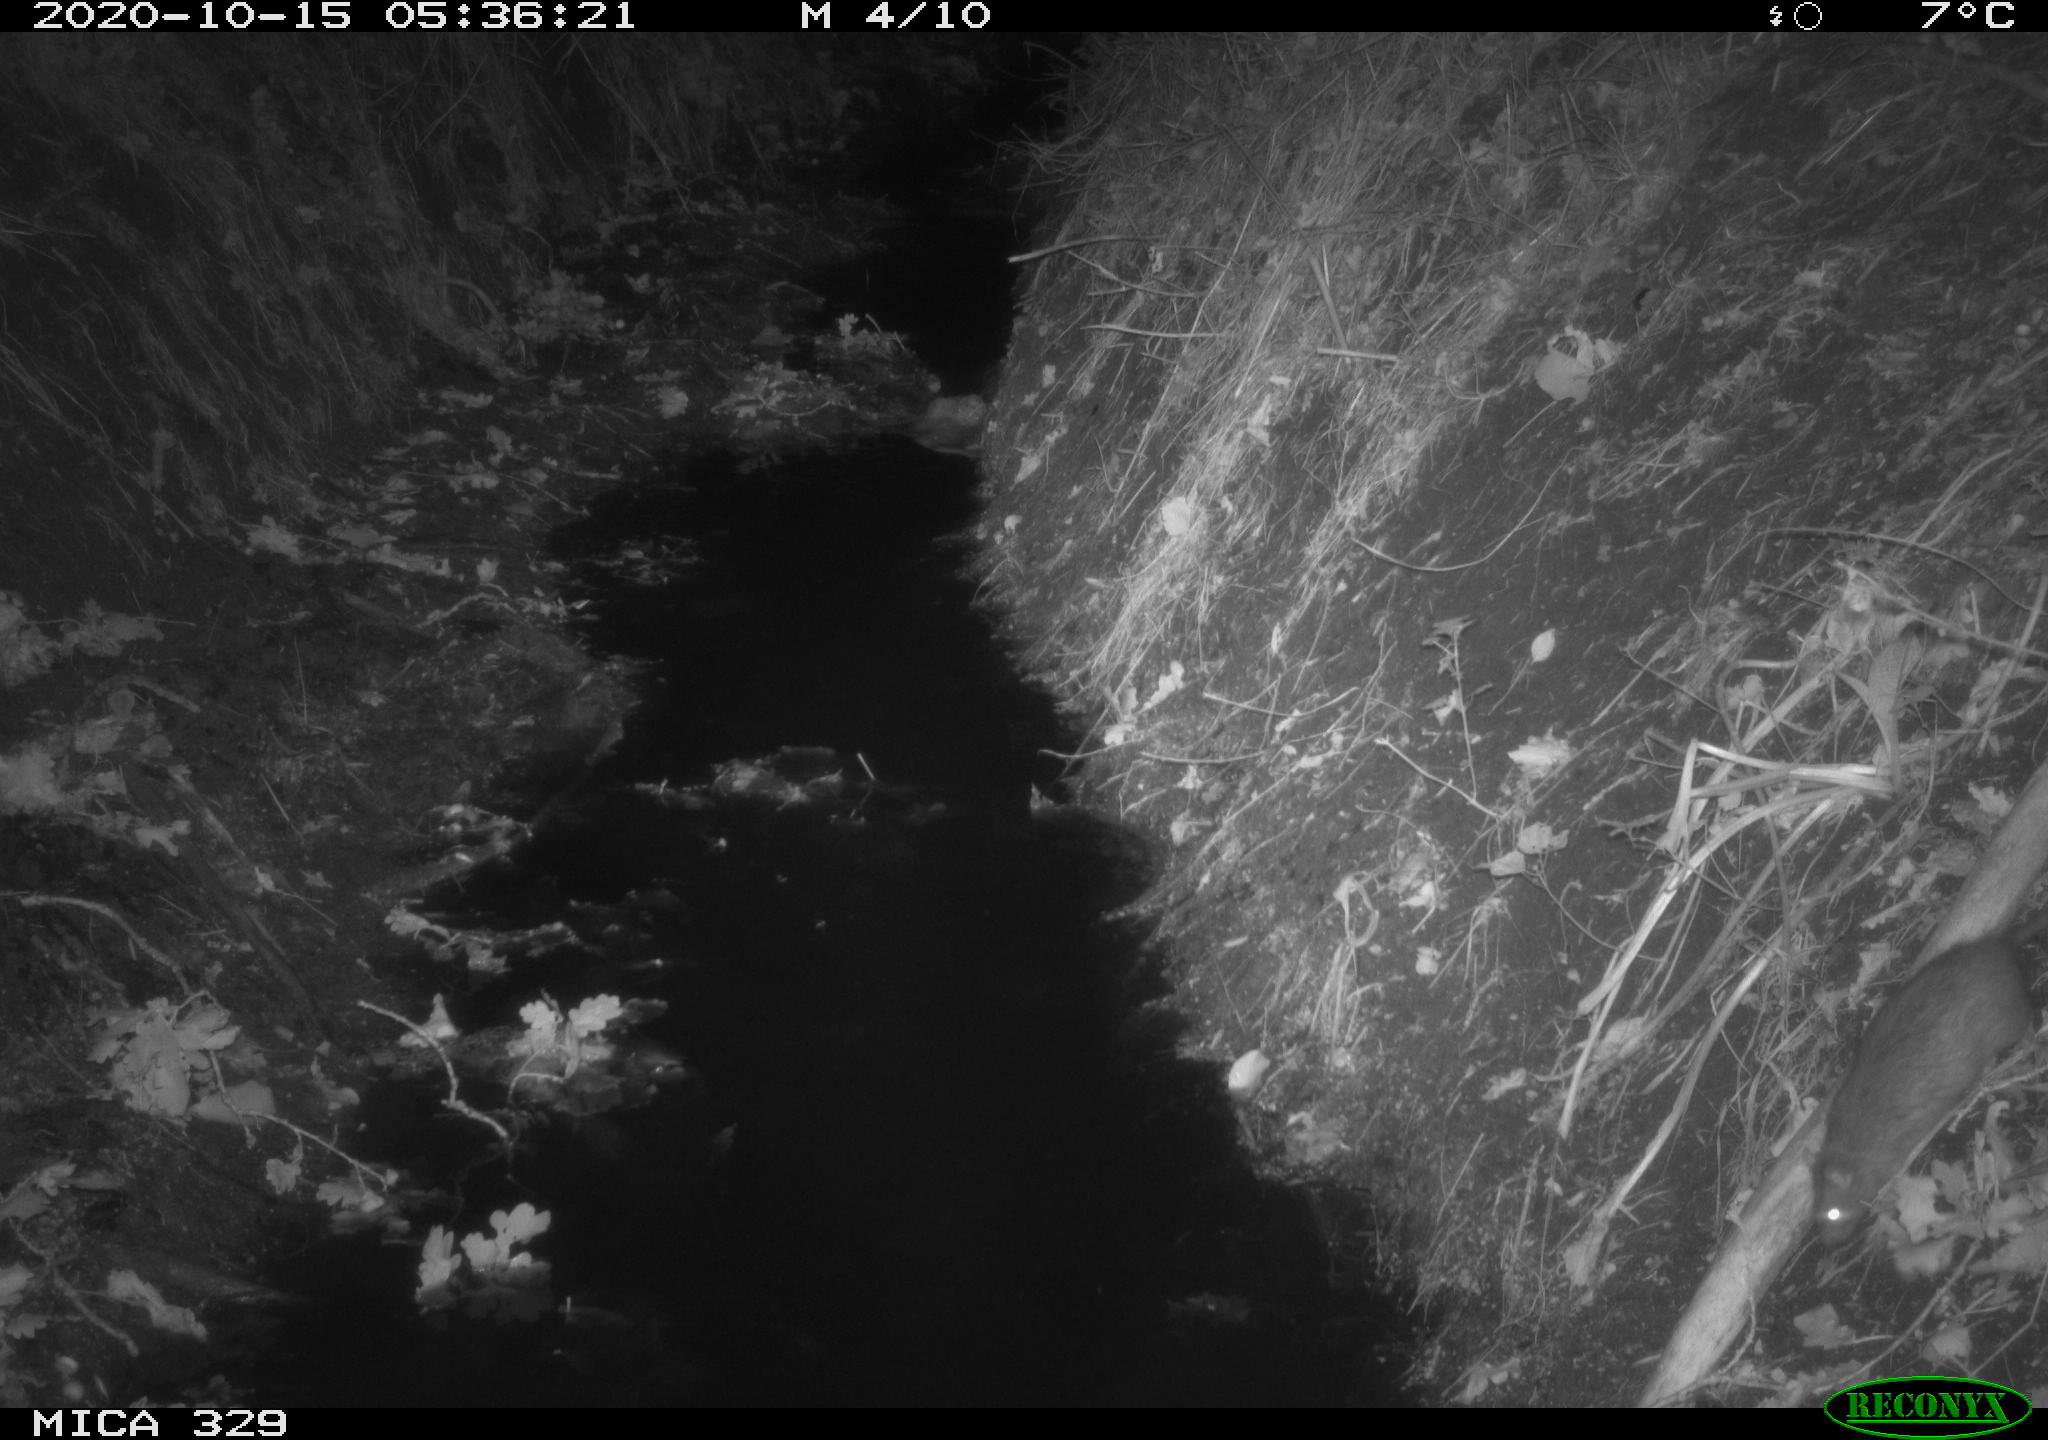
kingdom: Animalia
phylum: Chordata
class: Mammalia
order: Rodentia
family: Muridae
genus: Rattus
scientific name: Rattus norvegicus
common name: Brown rat
